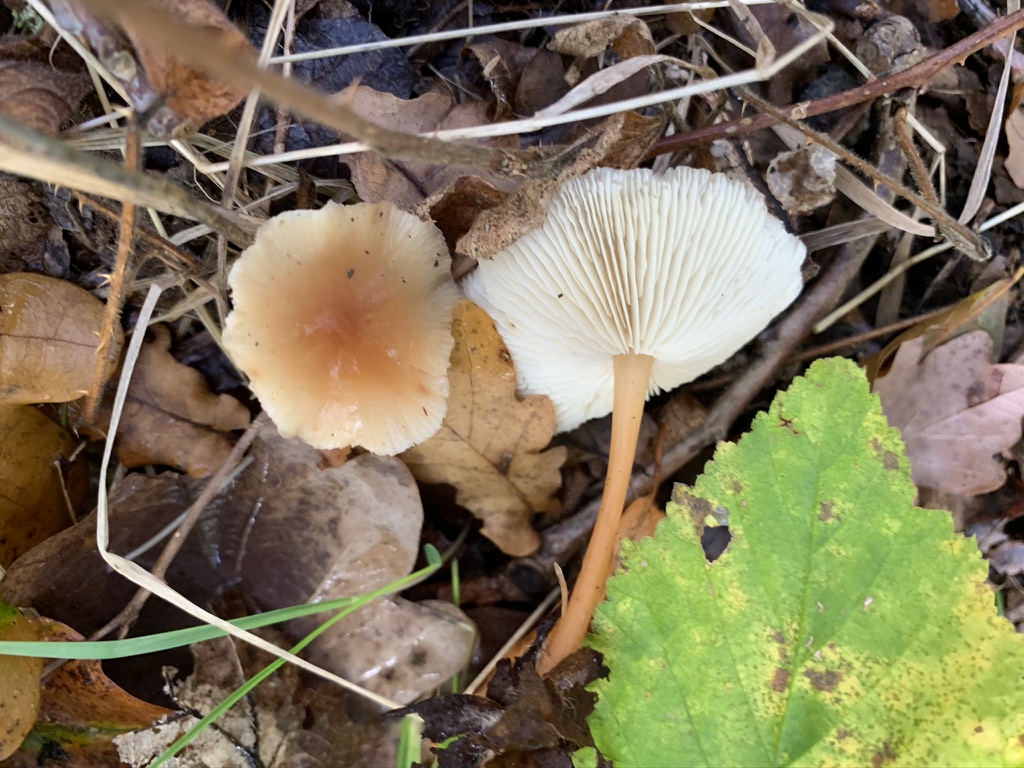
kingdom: Fungi
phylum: Basidiomycota
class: Agaricomycetes
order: Agaricales
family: Omphalotaceae
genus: Gymnopus
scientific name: Gymnopus dryophilus
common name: løv-fladhat
